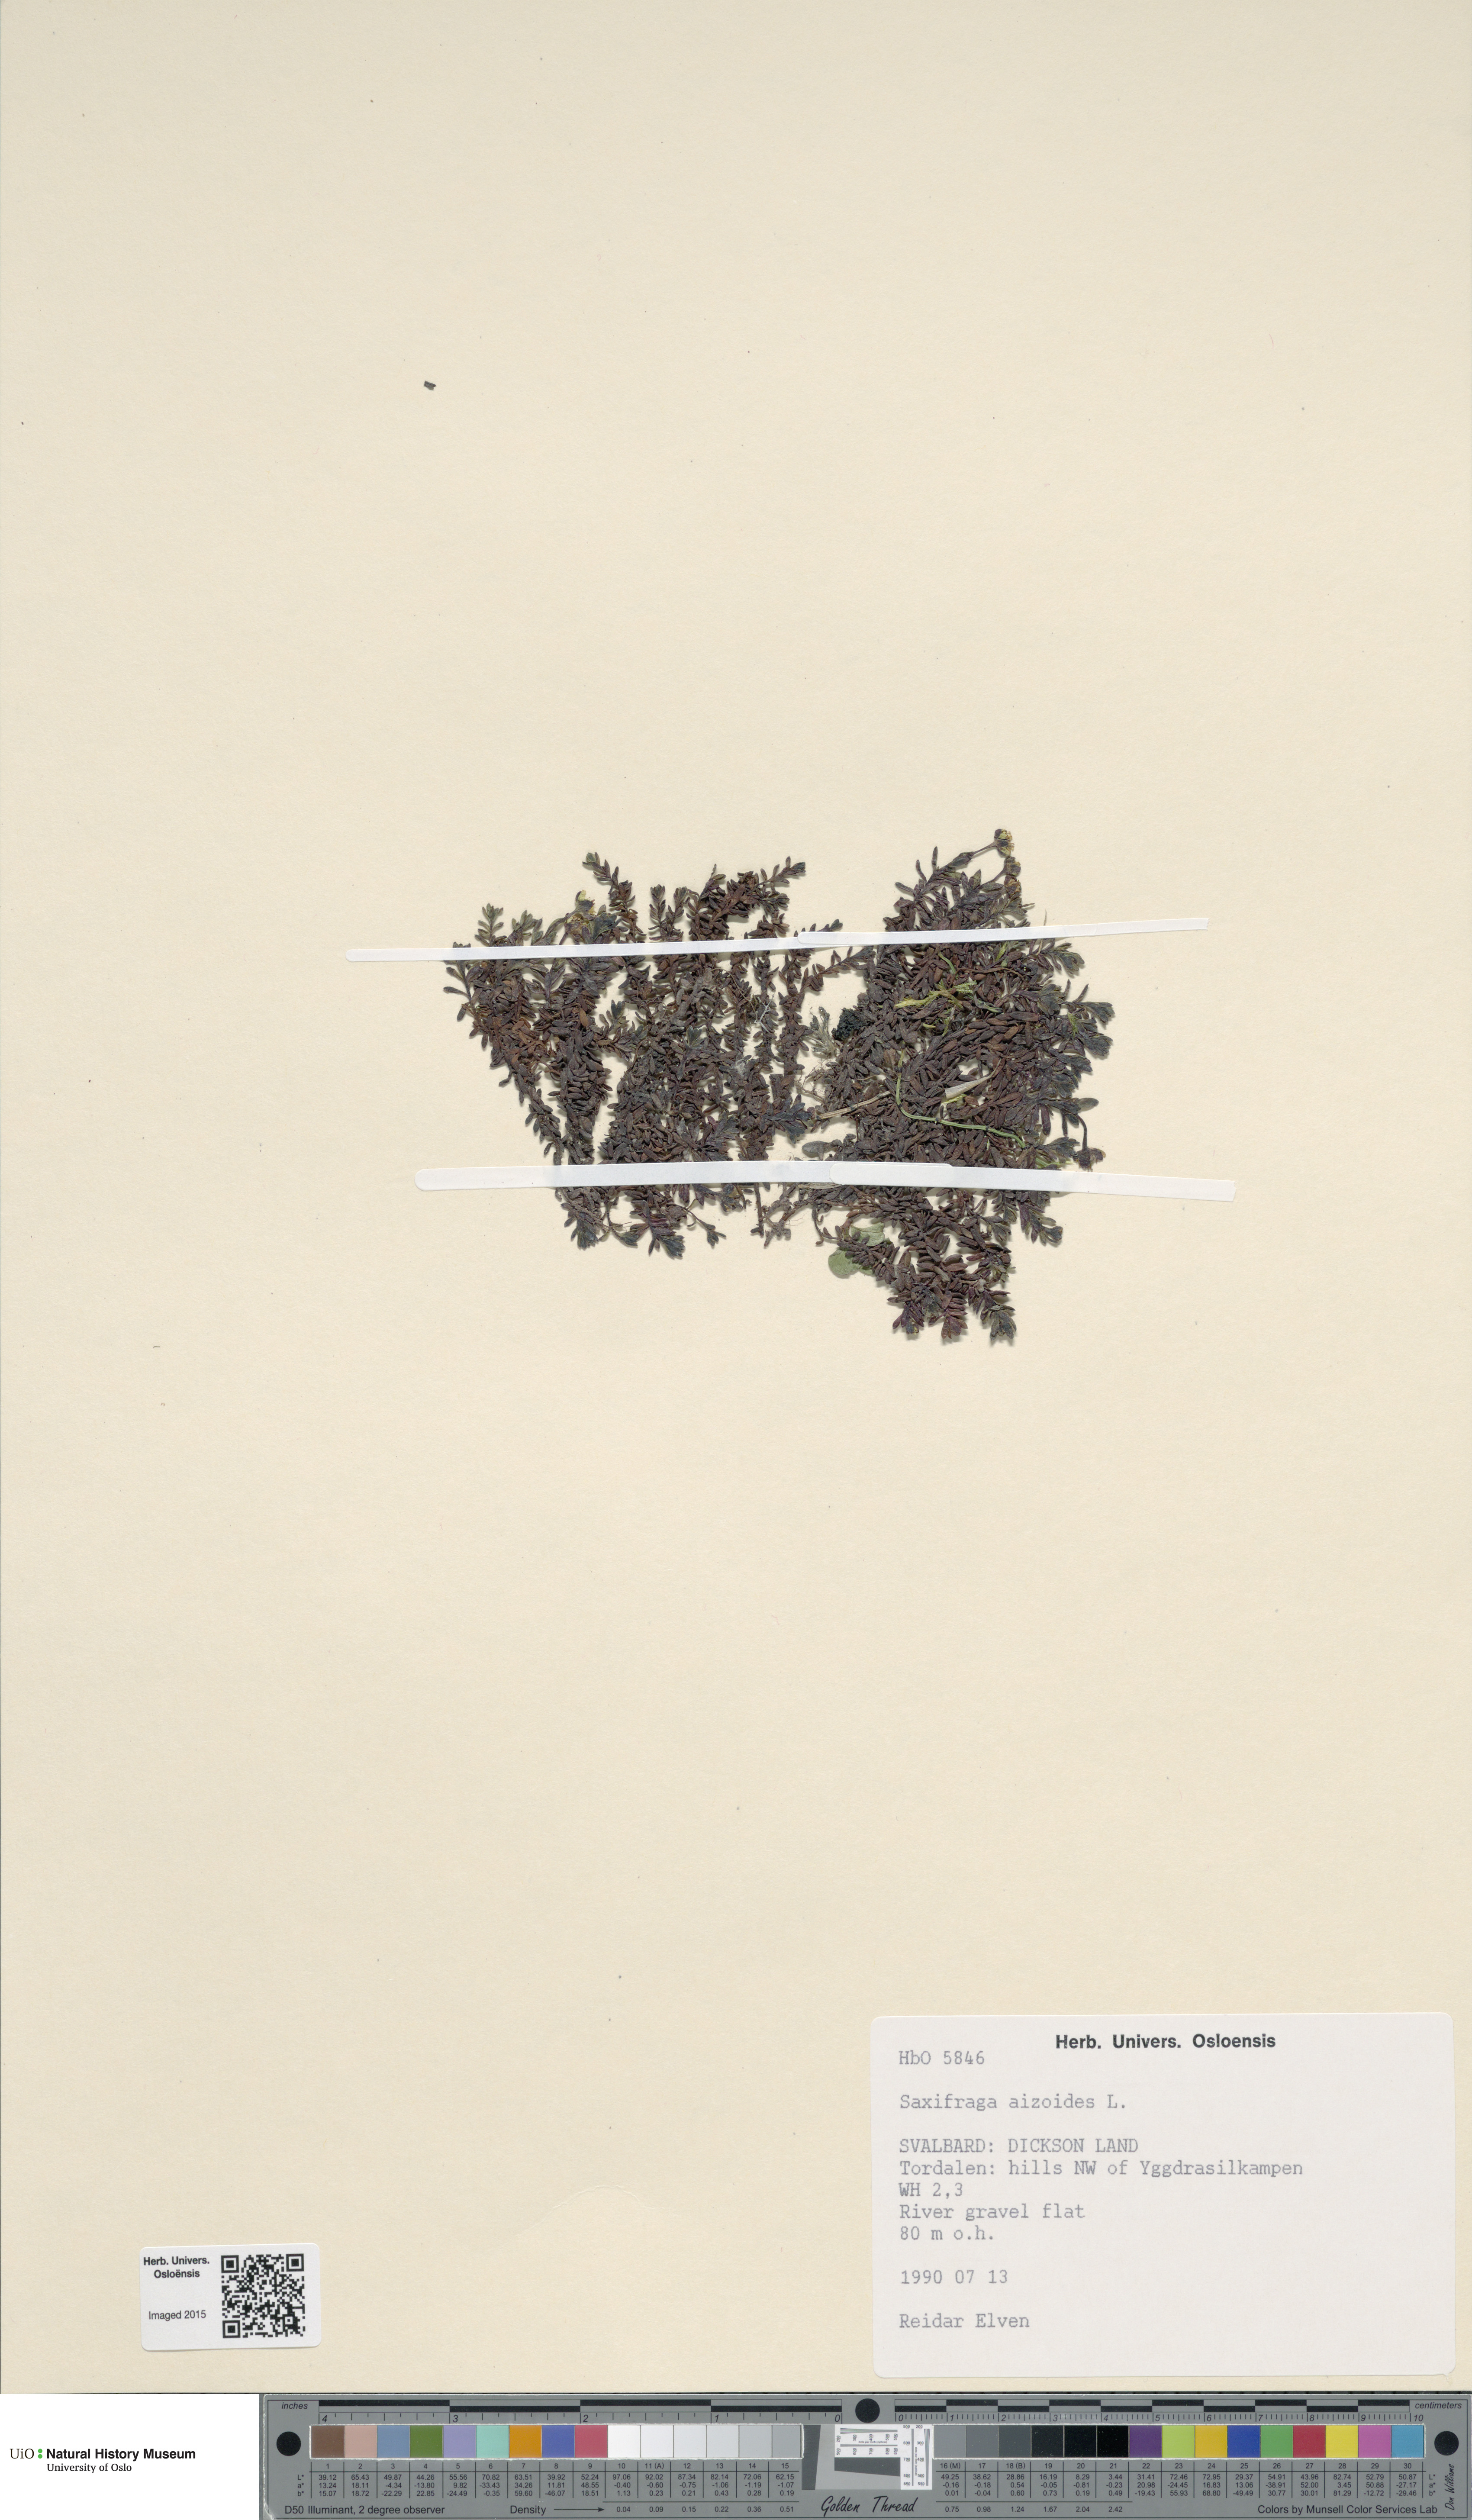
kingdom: Plantae
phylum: Tracheophyta
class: Magnoliopsida
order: Saxifragales
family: Saxifragaceae
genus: Saxifraga
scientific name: Saxifraga aizoides
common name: Yellow mountain saxifrage
